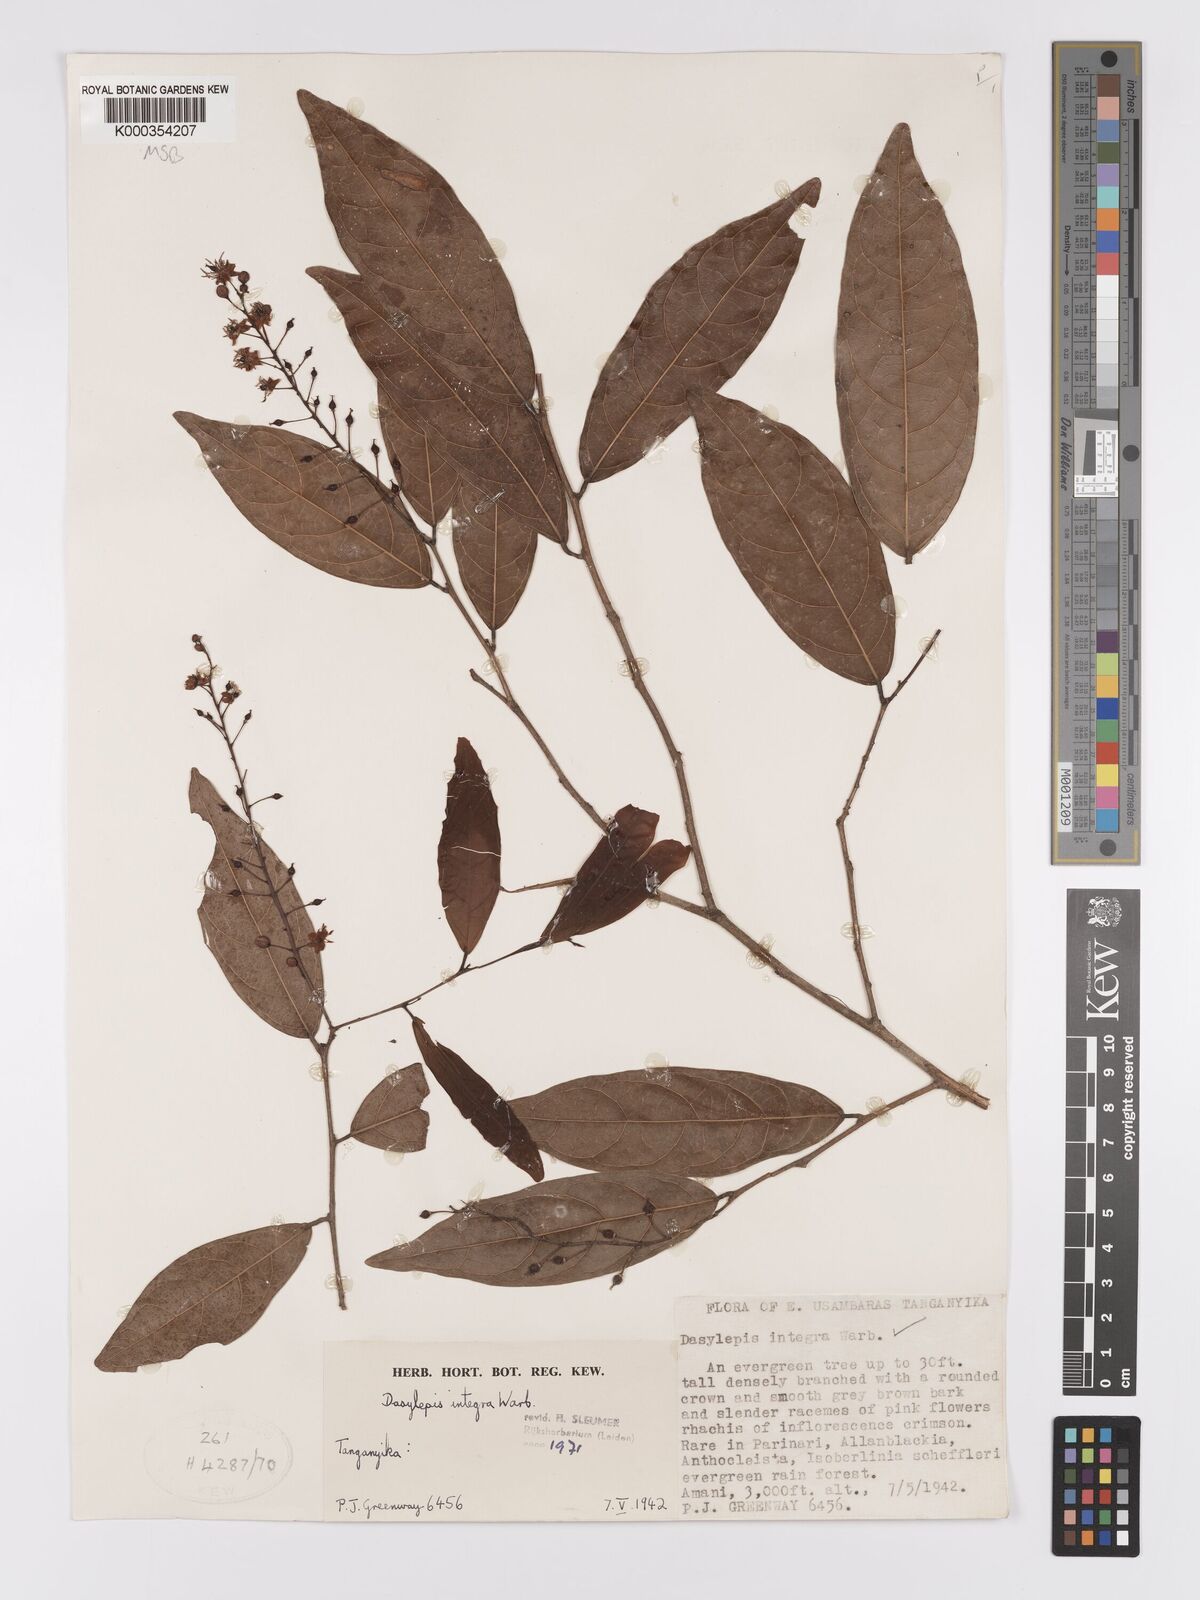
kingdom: Plantae
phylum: Tracheophyta
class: Magnoliopsida
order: Malpighiales
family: Achariaceae
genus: Dasylepis
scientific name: Dasylepis integra
